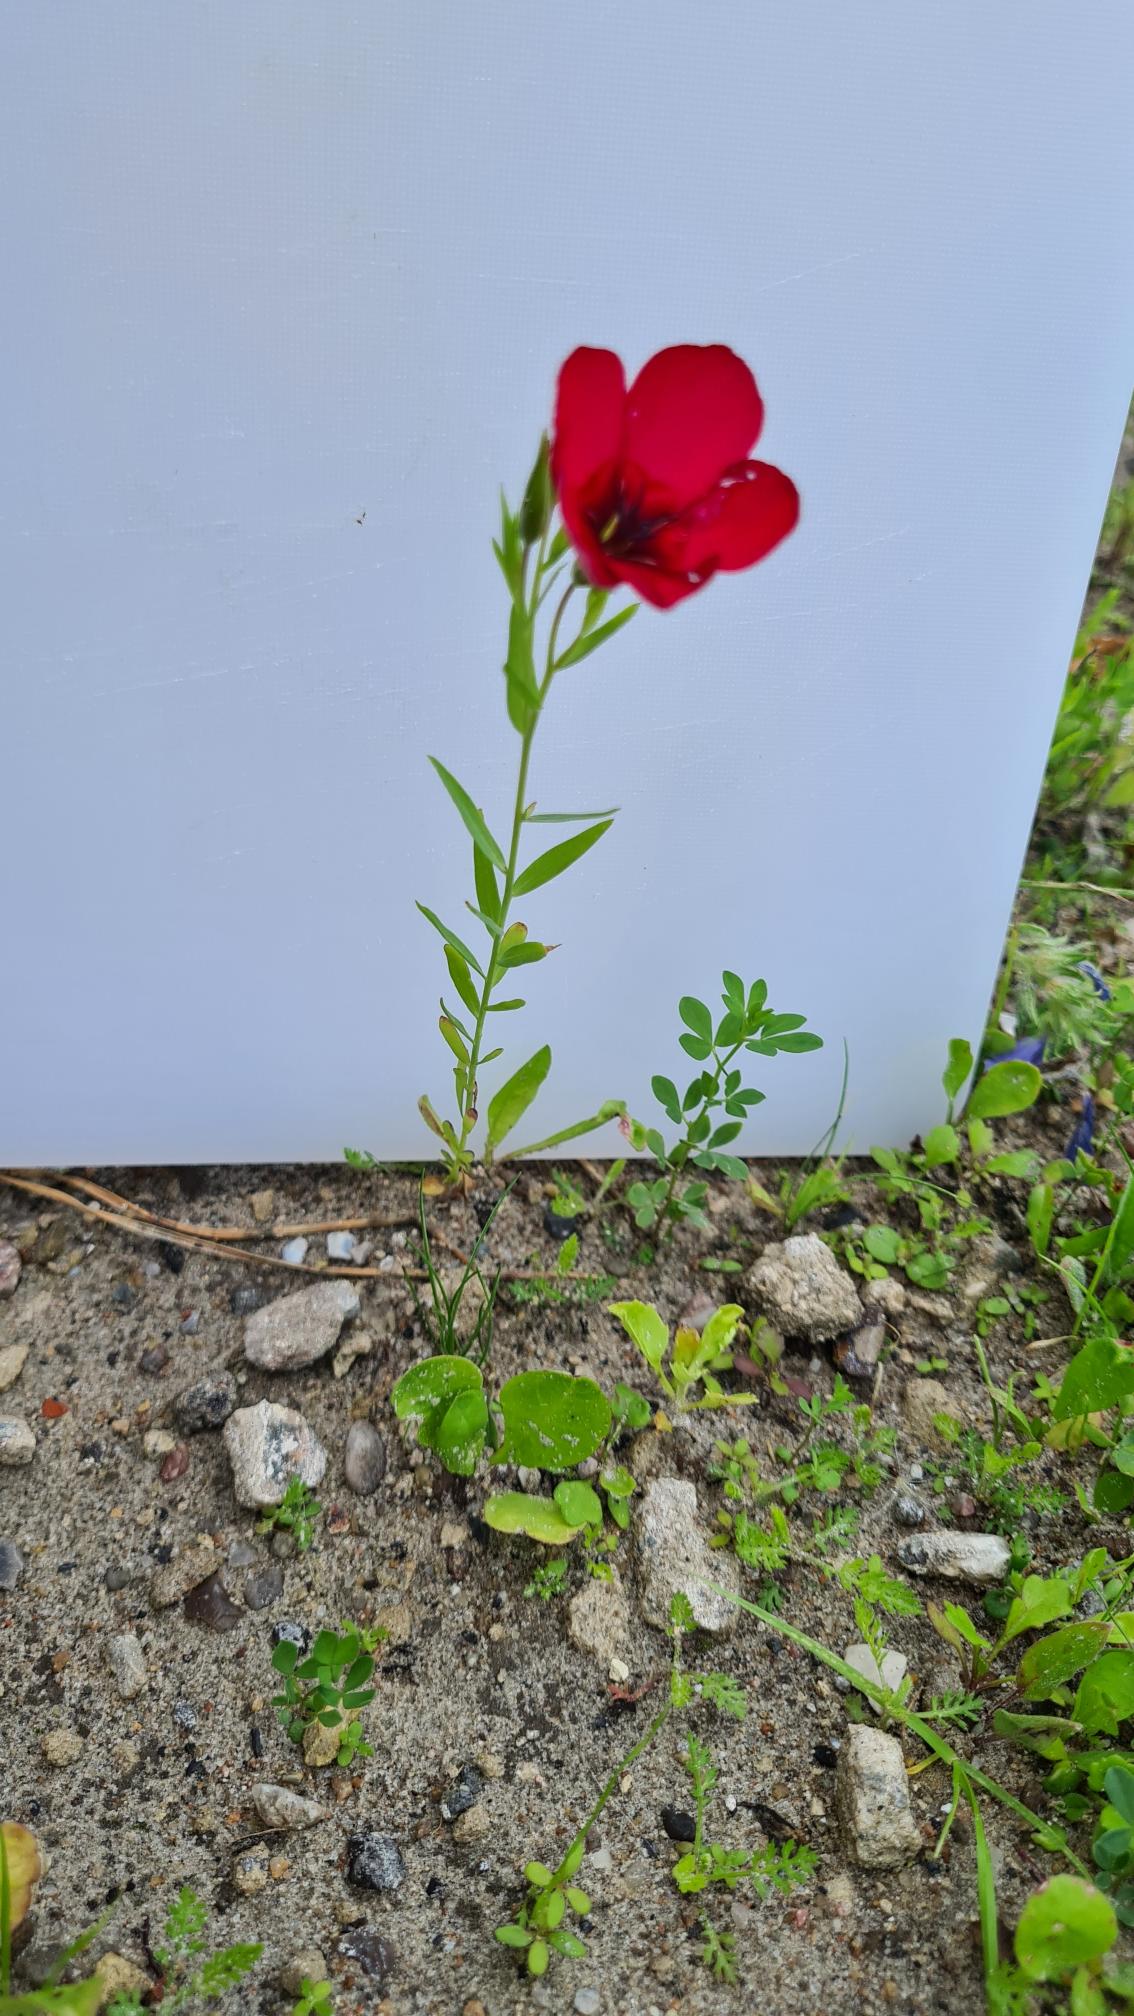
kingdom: Plantae
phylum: Tracheophyta
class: Magnoliopsida
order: Malpighiales
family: Linaceae
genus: Linum
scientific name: Linum grandiflorum
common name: Rød hør
